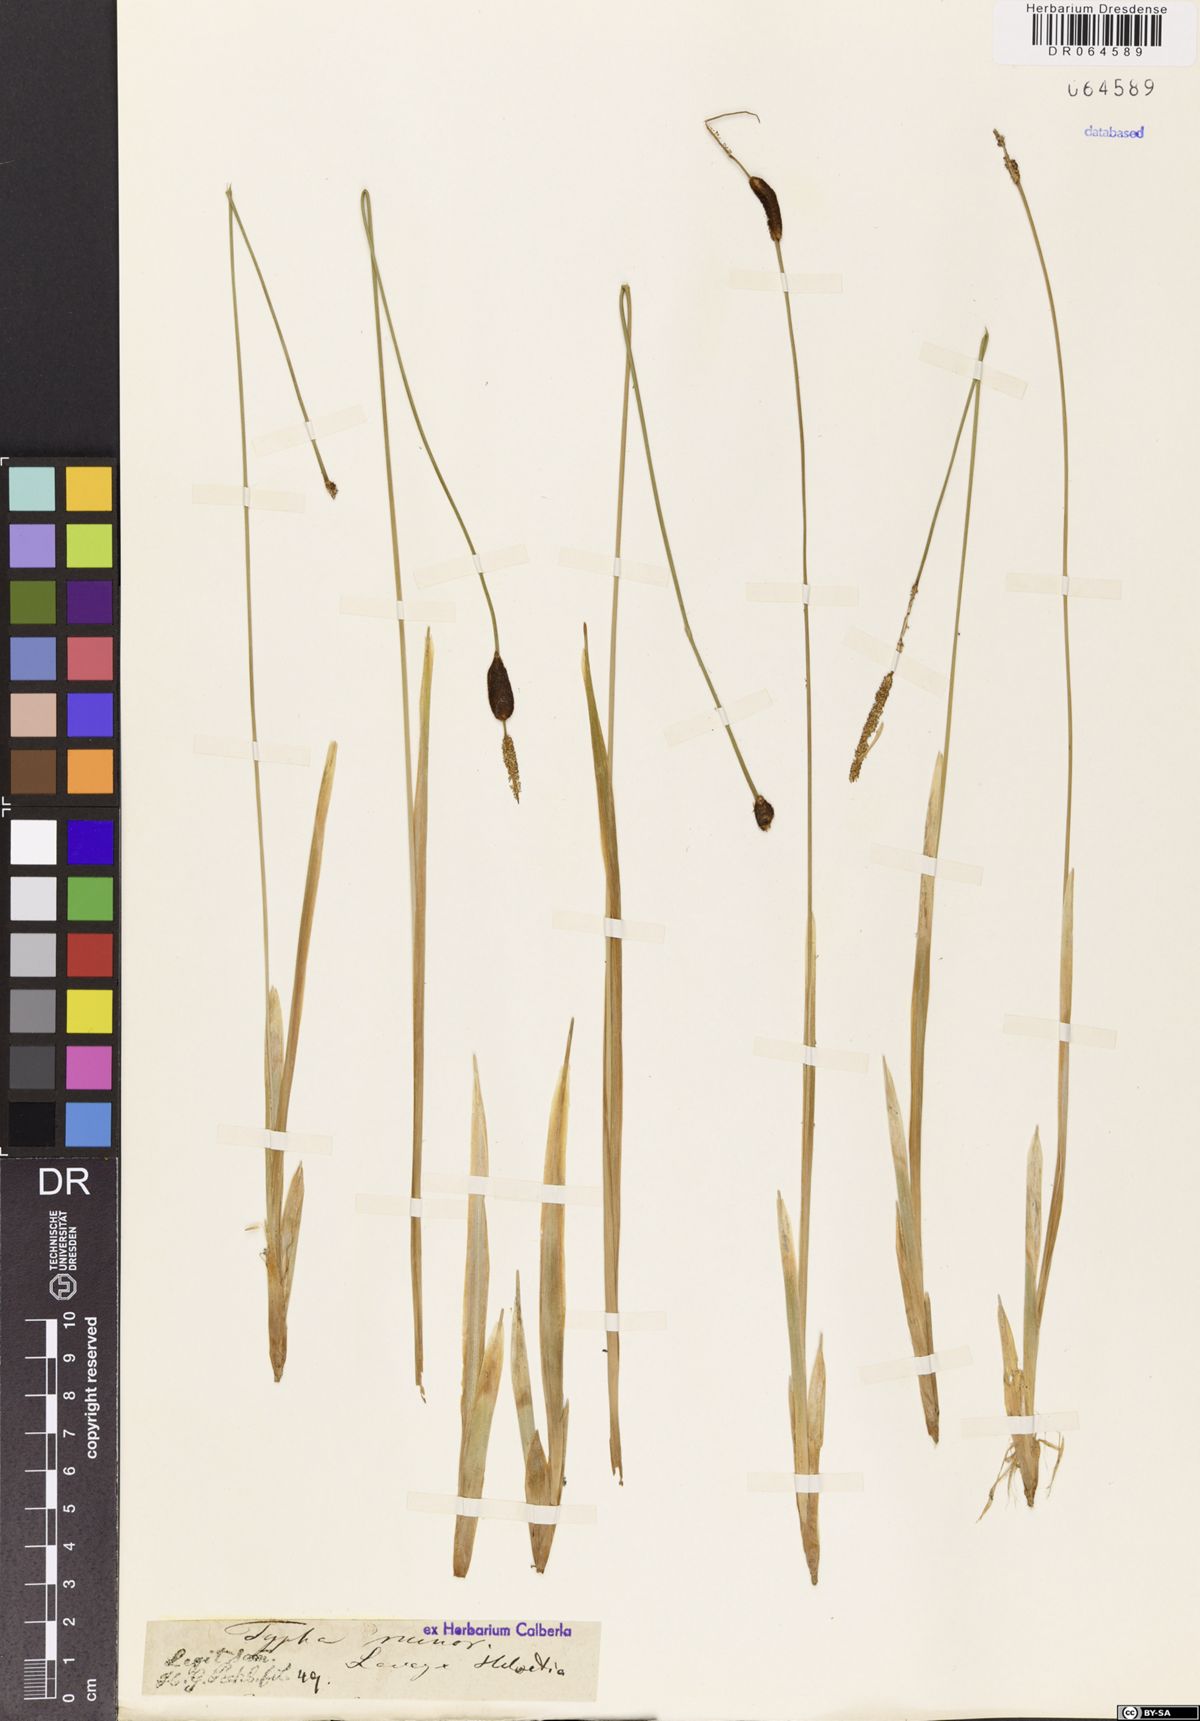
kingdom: Plantae
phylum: Tracheophyta
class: Liliopsida
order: Poales
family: Typhaceae
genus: Typha
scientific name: Typha minima
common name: Dwarf bulrush
